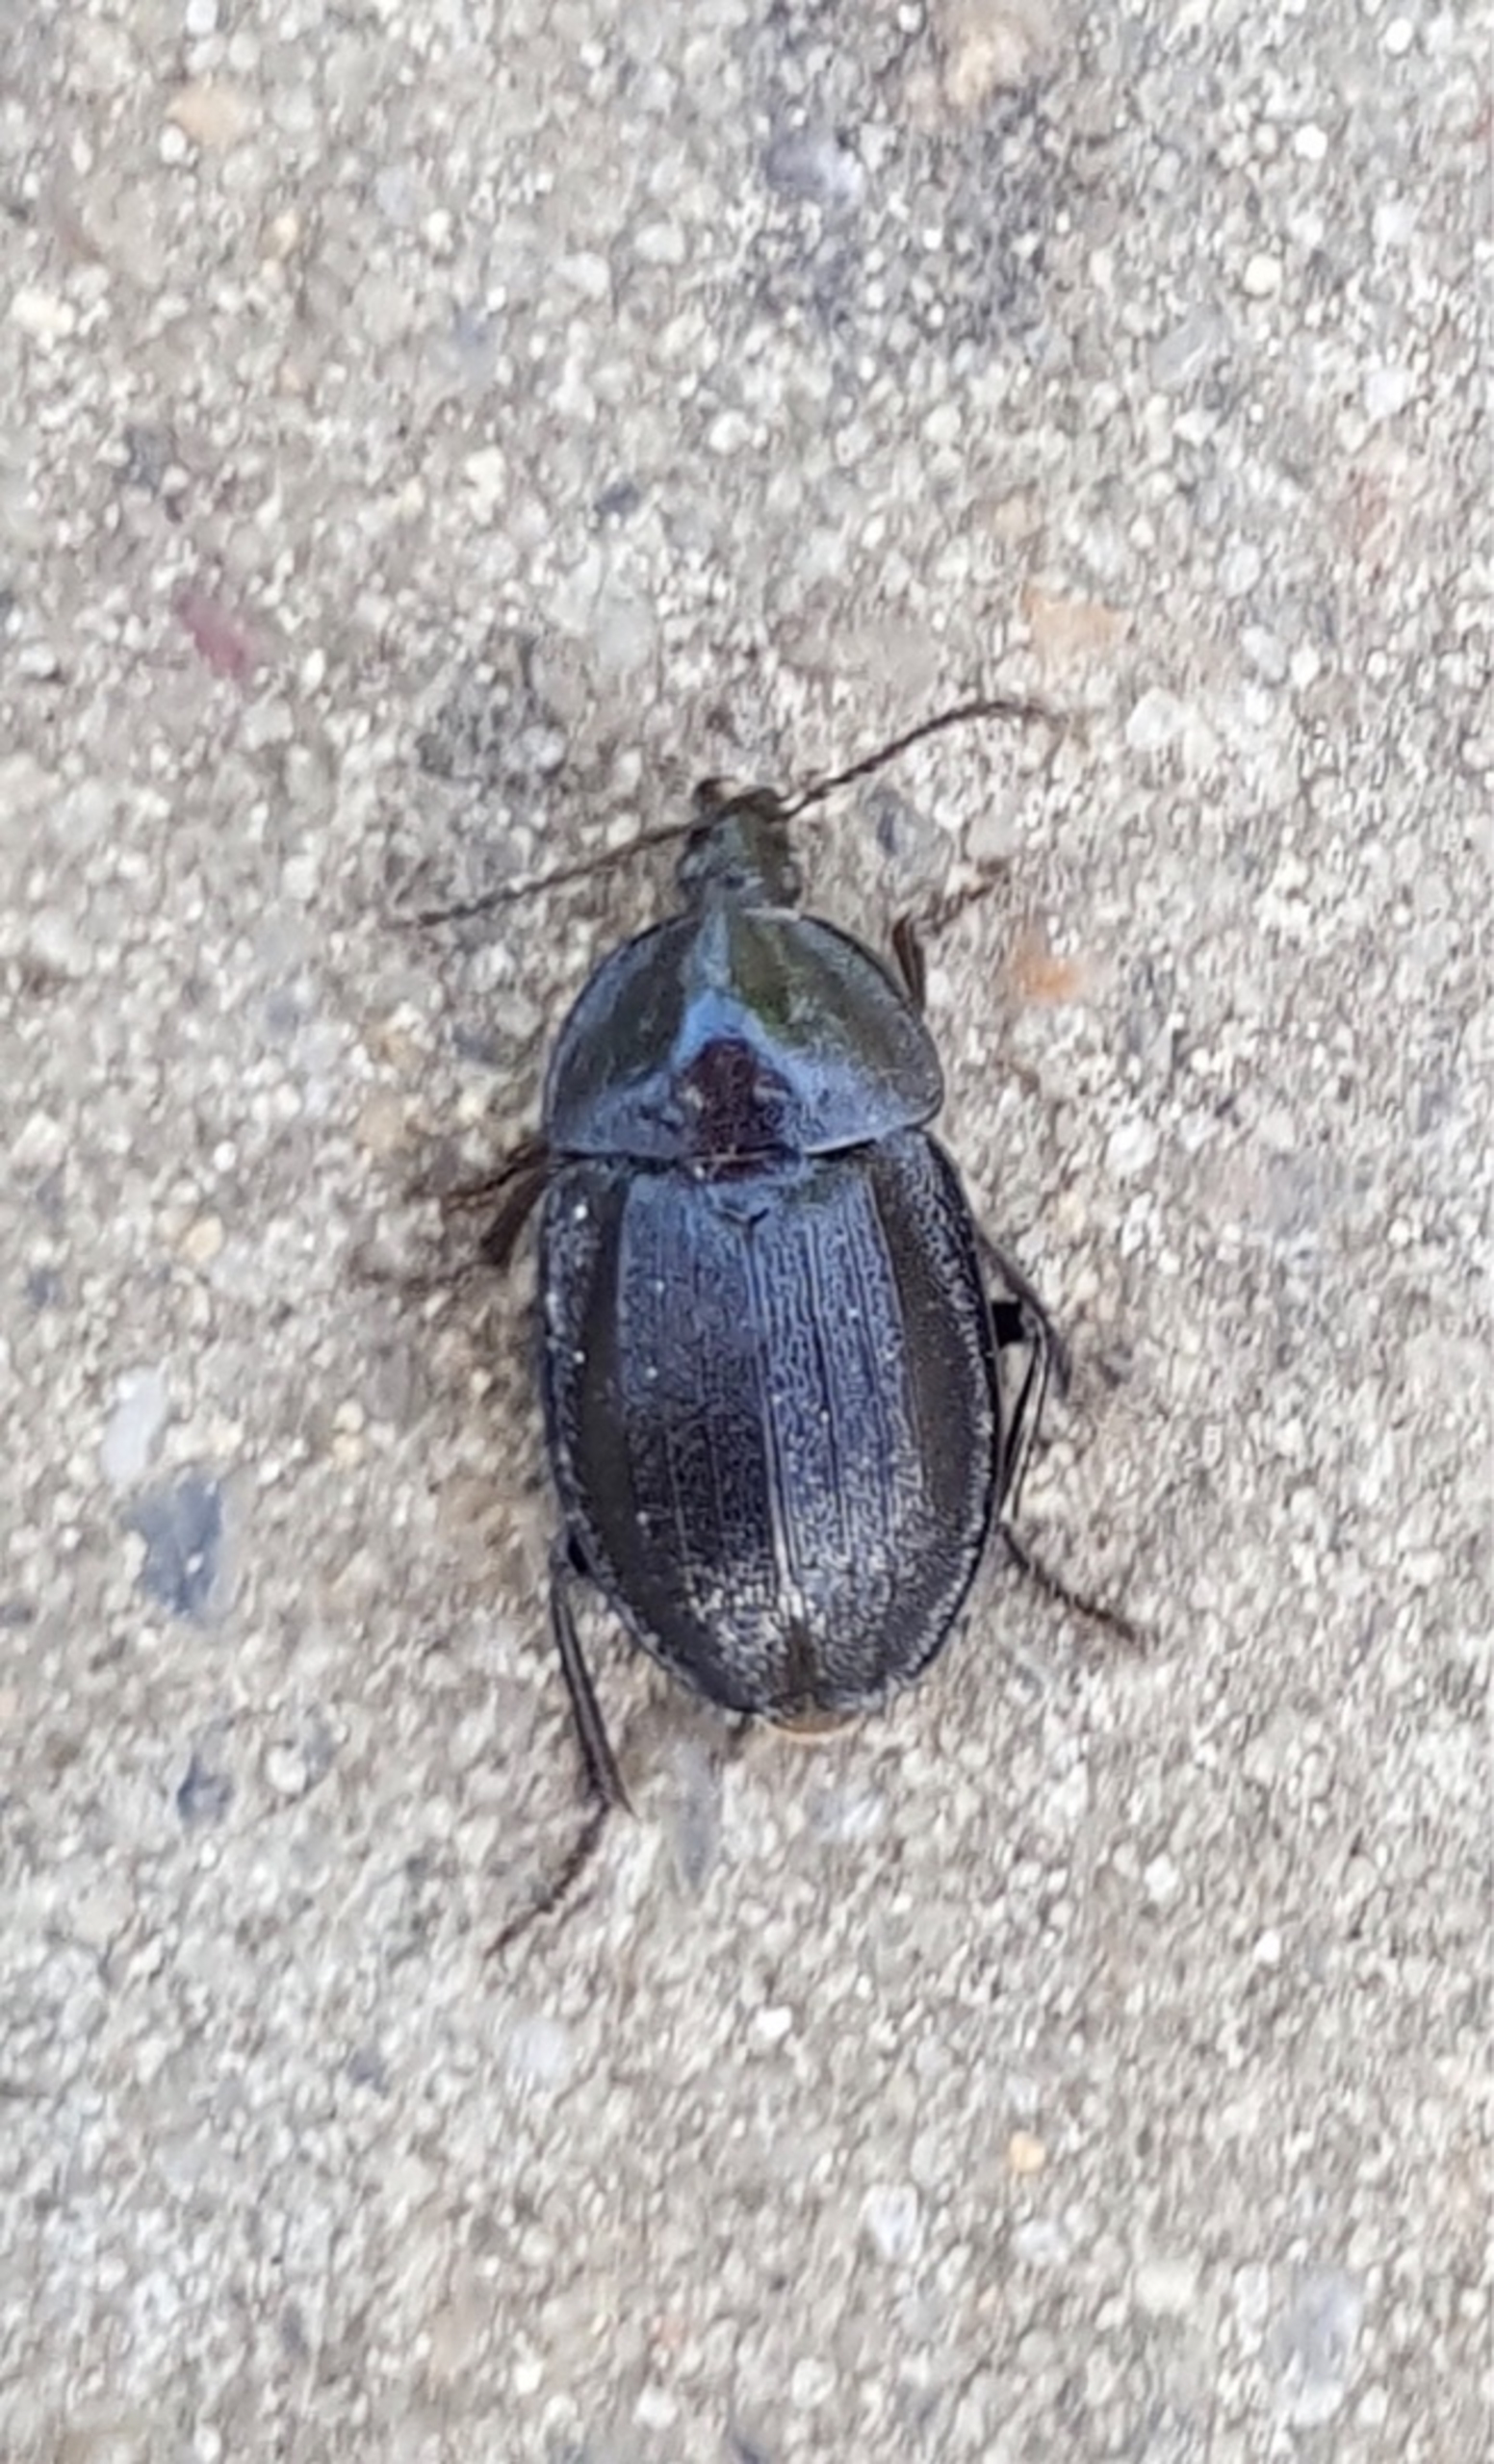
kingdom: Animalia
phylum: Arthropoda
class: Insecta
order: Coleoptera
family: Staphylinidae
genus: Silpha
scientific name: Silpha atrata
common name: Snegleådselbille
